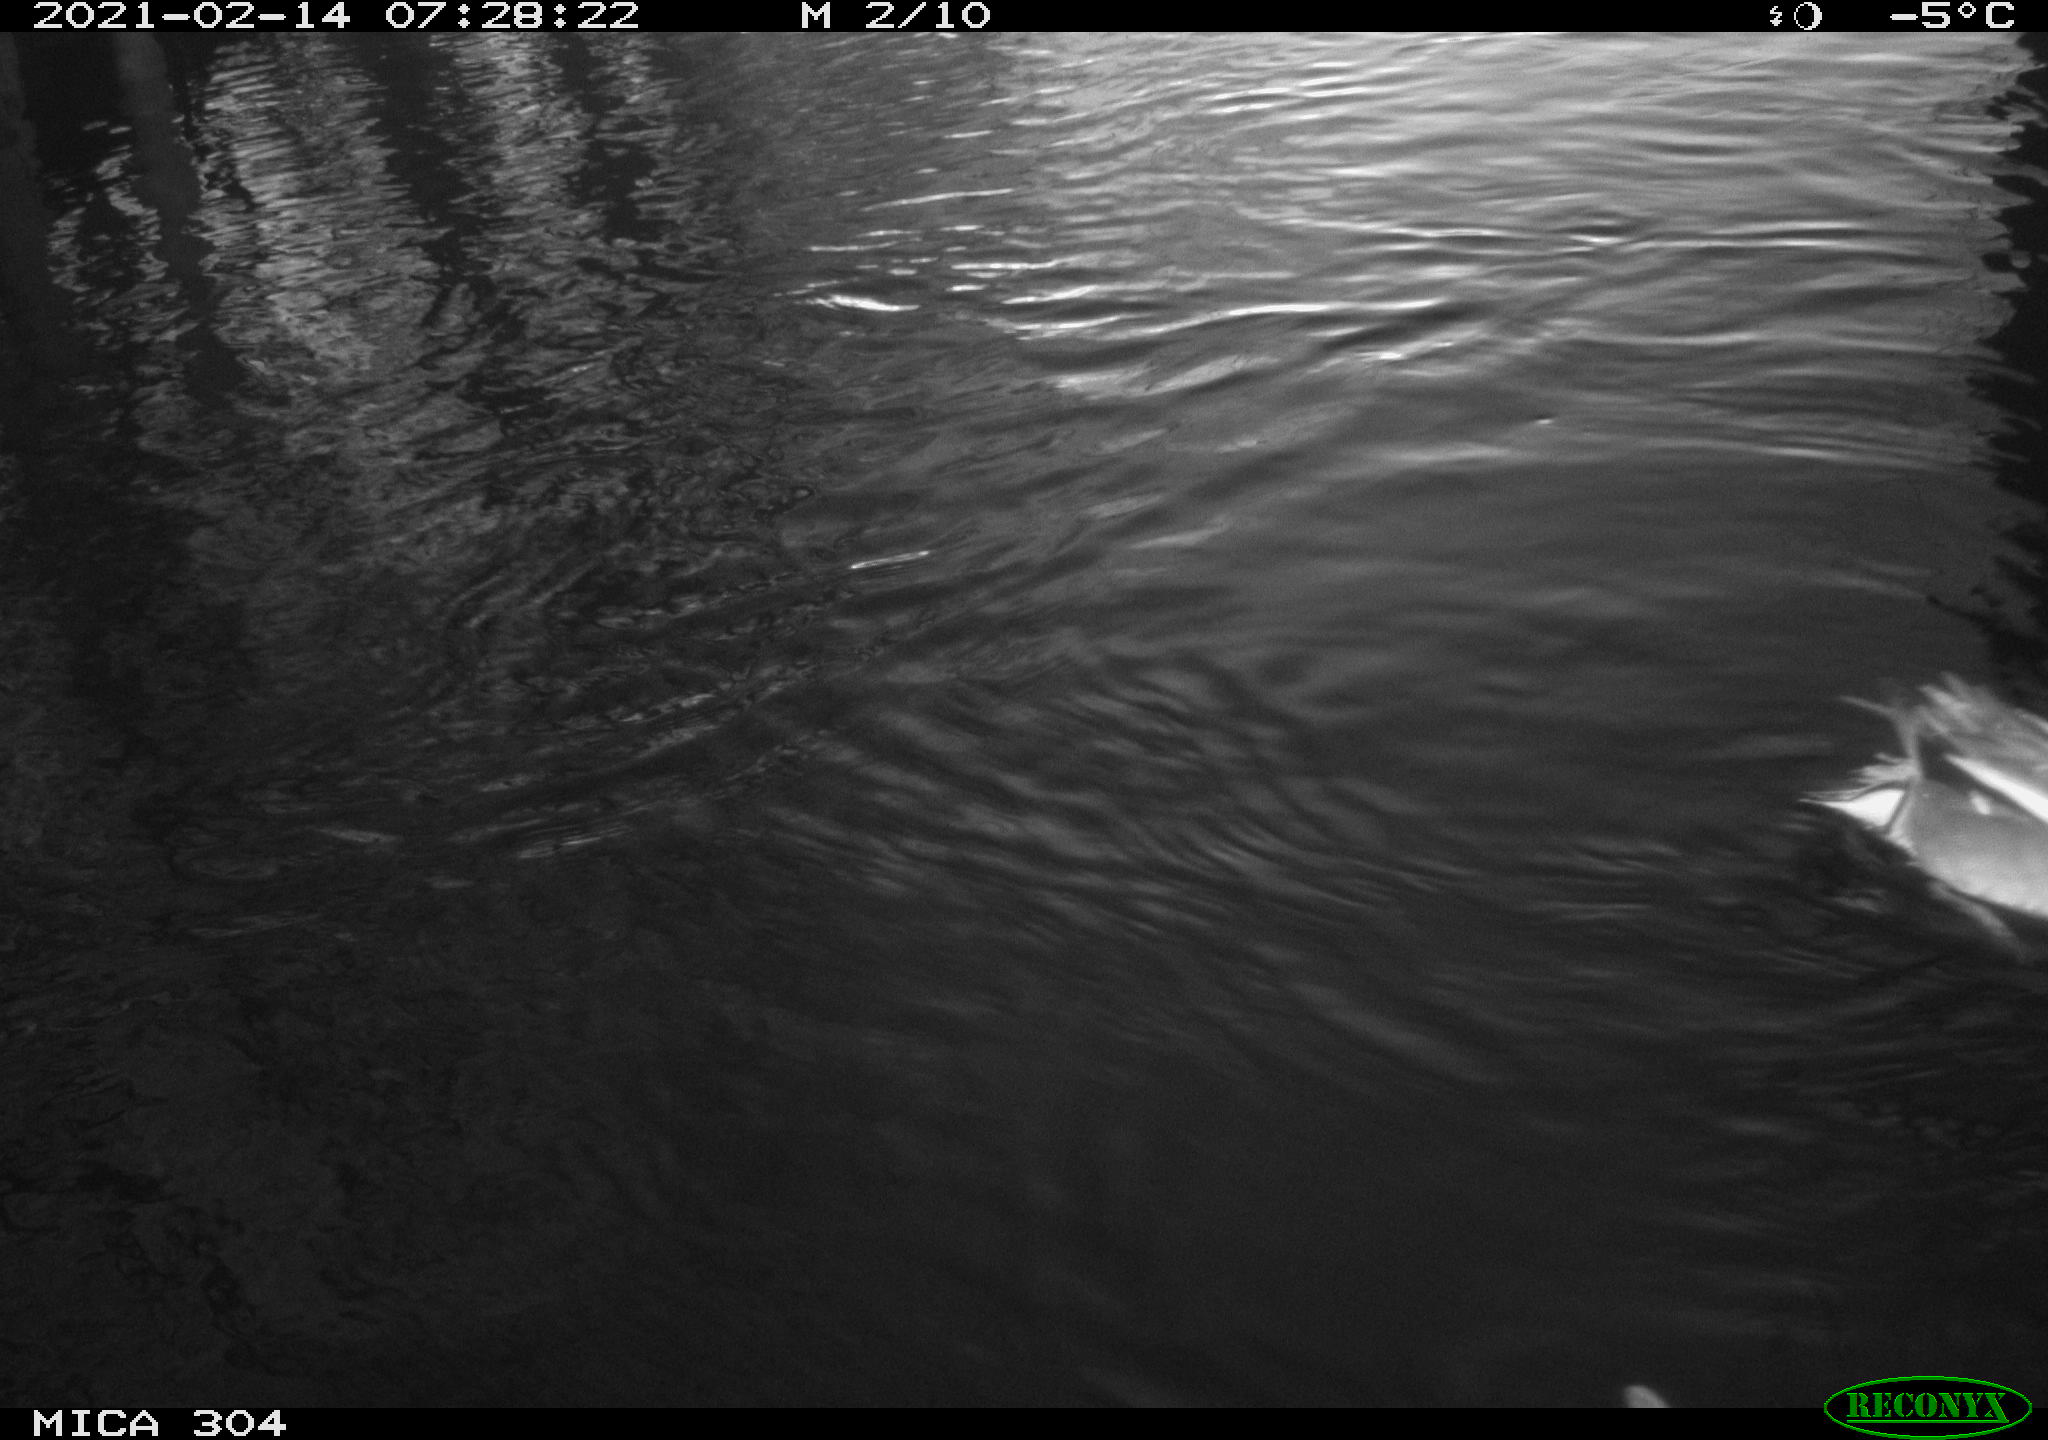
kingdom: Animalia
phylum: Chordata
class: Aves
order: Gruiformes
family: Rallidae
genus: Gallinula
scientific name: Gallinula chloropus
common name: Common moorhen
